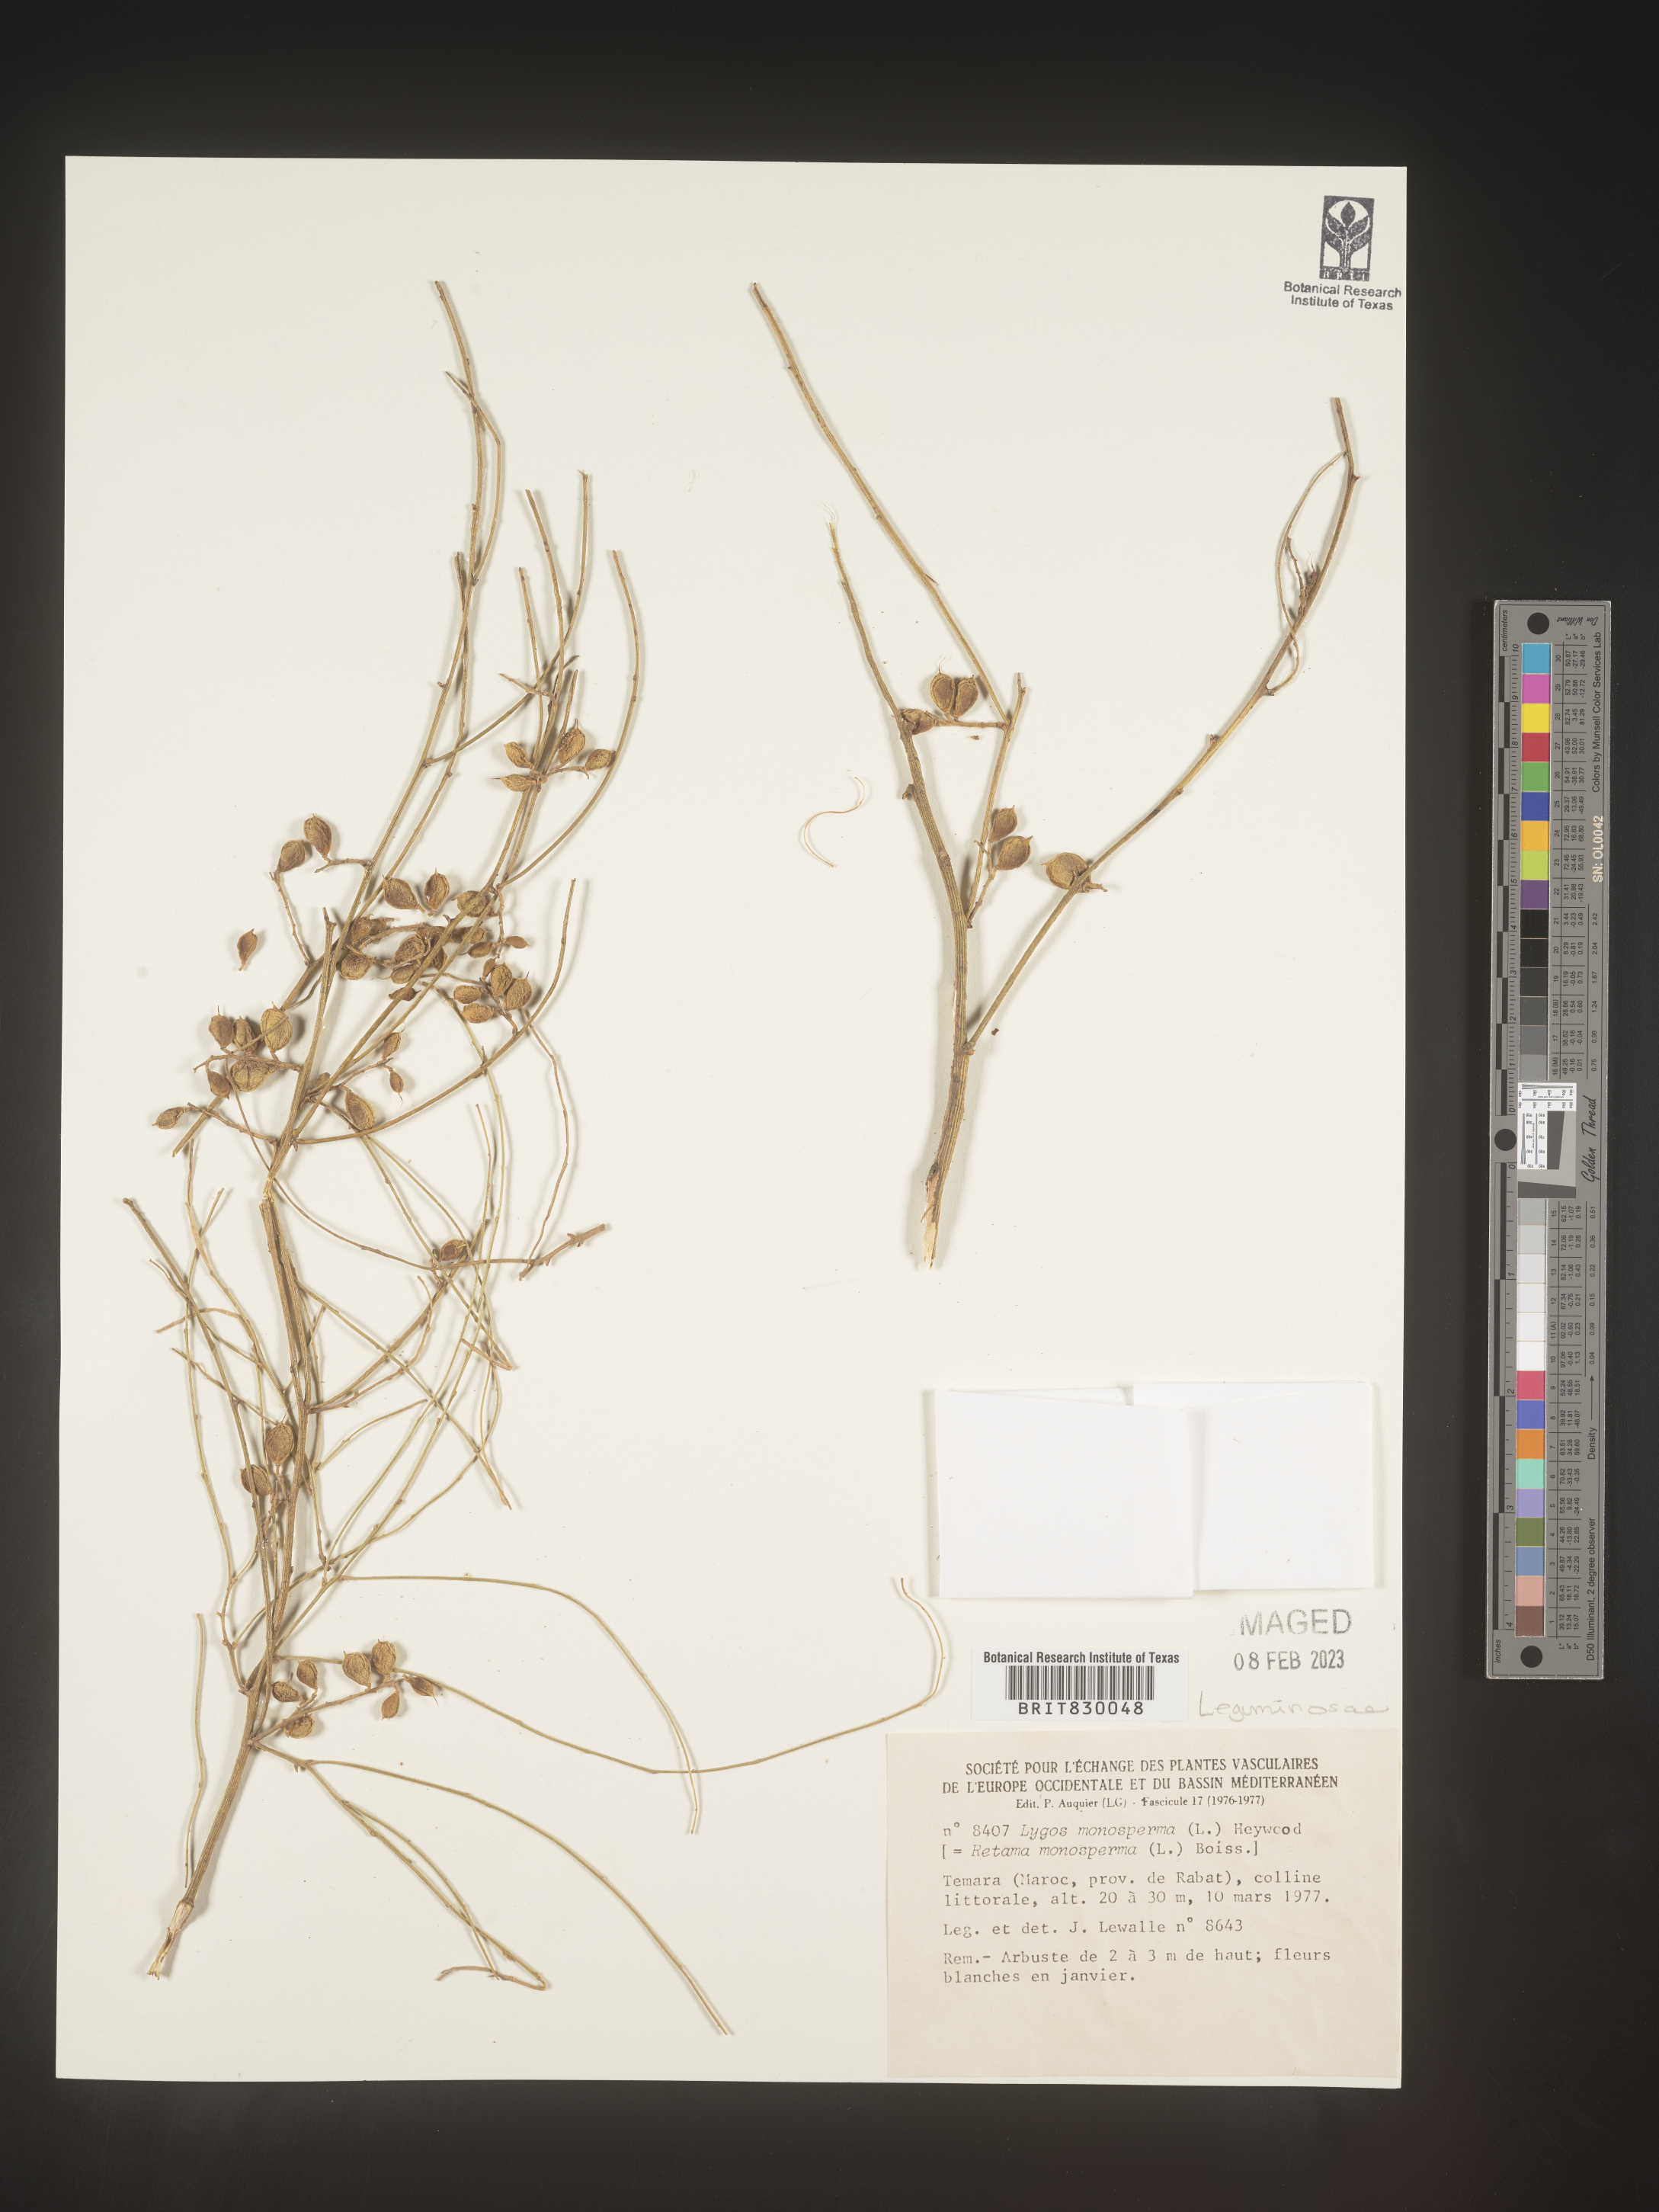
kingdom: Plantae
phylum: Tracheophyta
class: Magnoliopsida
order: Fabales
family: Fabaceae
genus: Retama
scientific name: Retama
